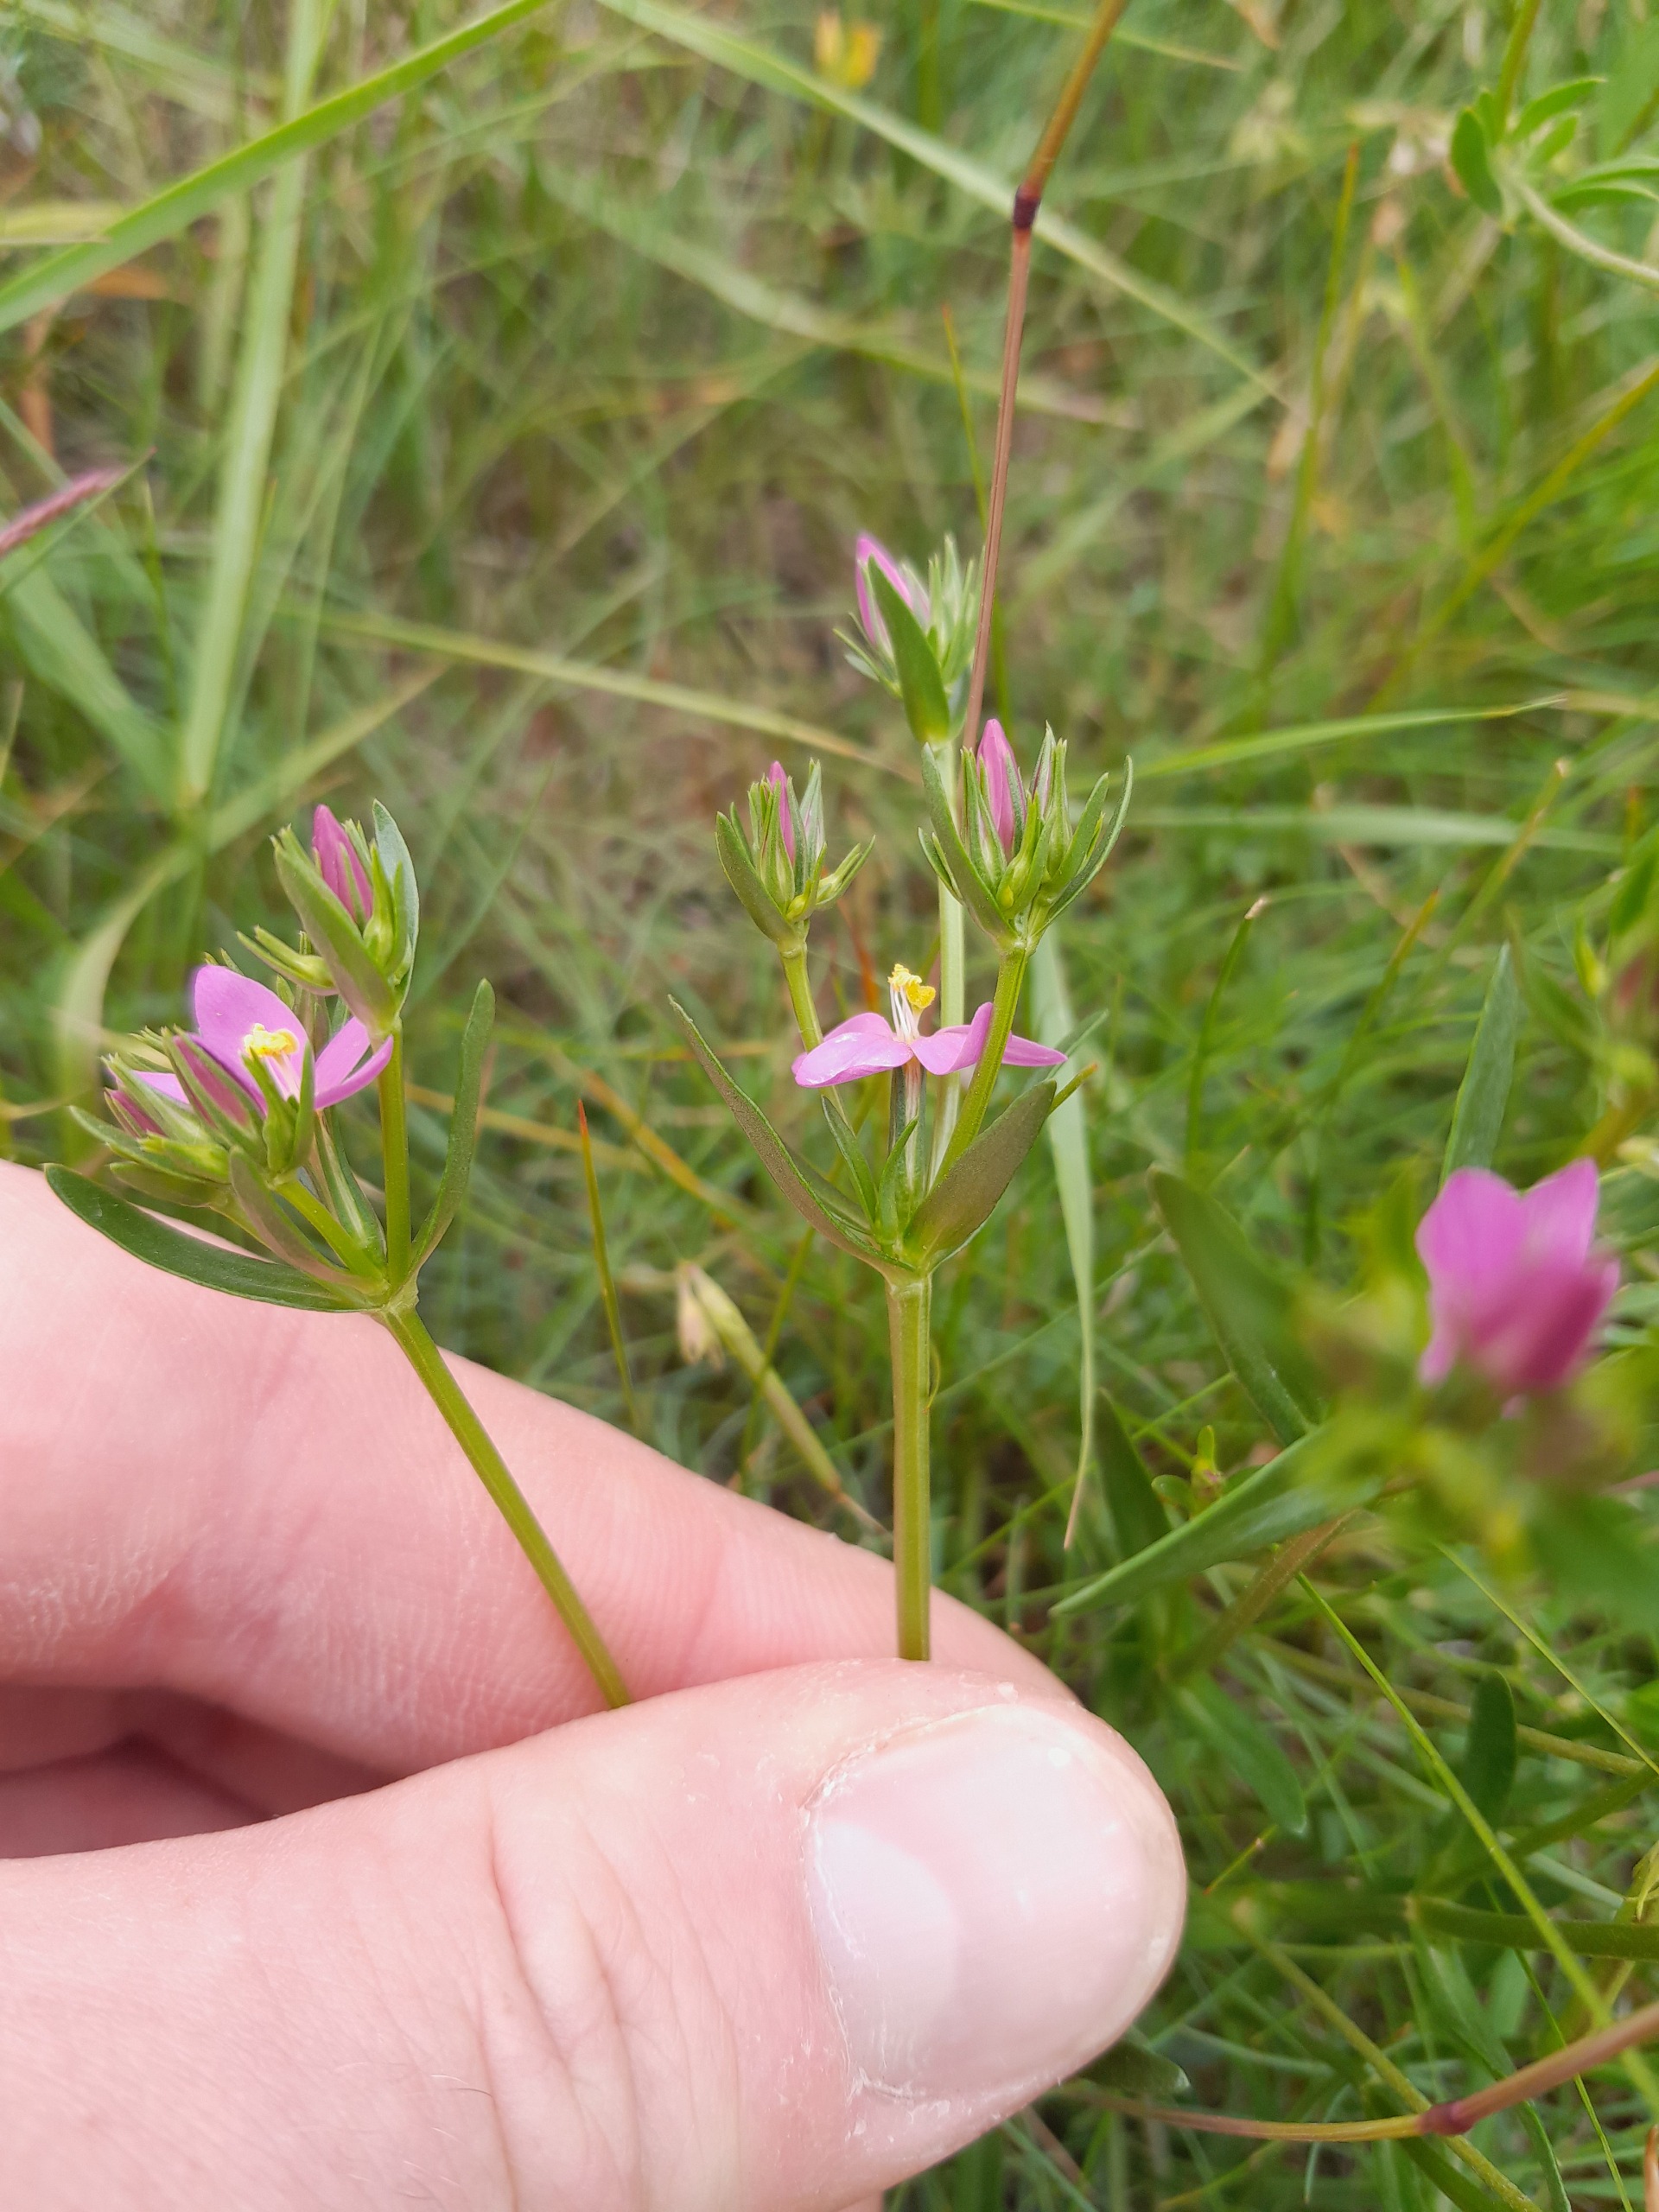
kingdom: Plantae
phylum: Tracheophyta
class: Magnoliopsida
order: Gentianales
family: Gentianaceae
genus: Centaurium
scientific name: Centaurium littorale
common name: Strand-tusindgylden
